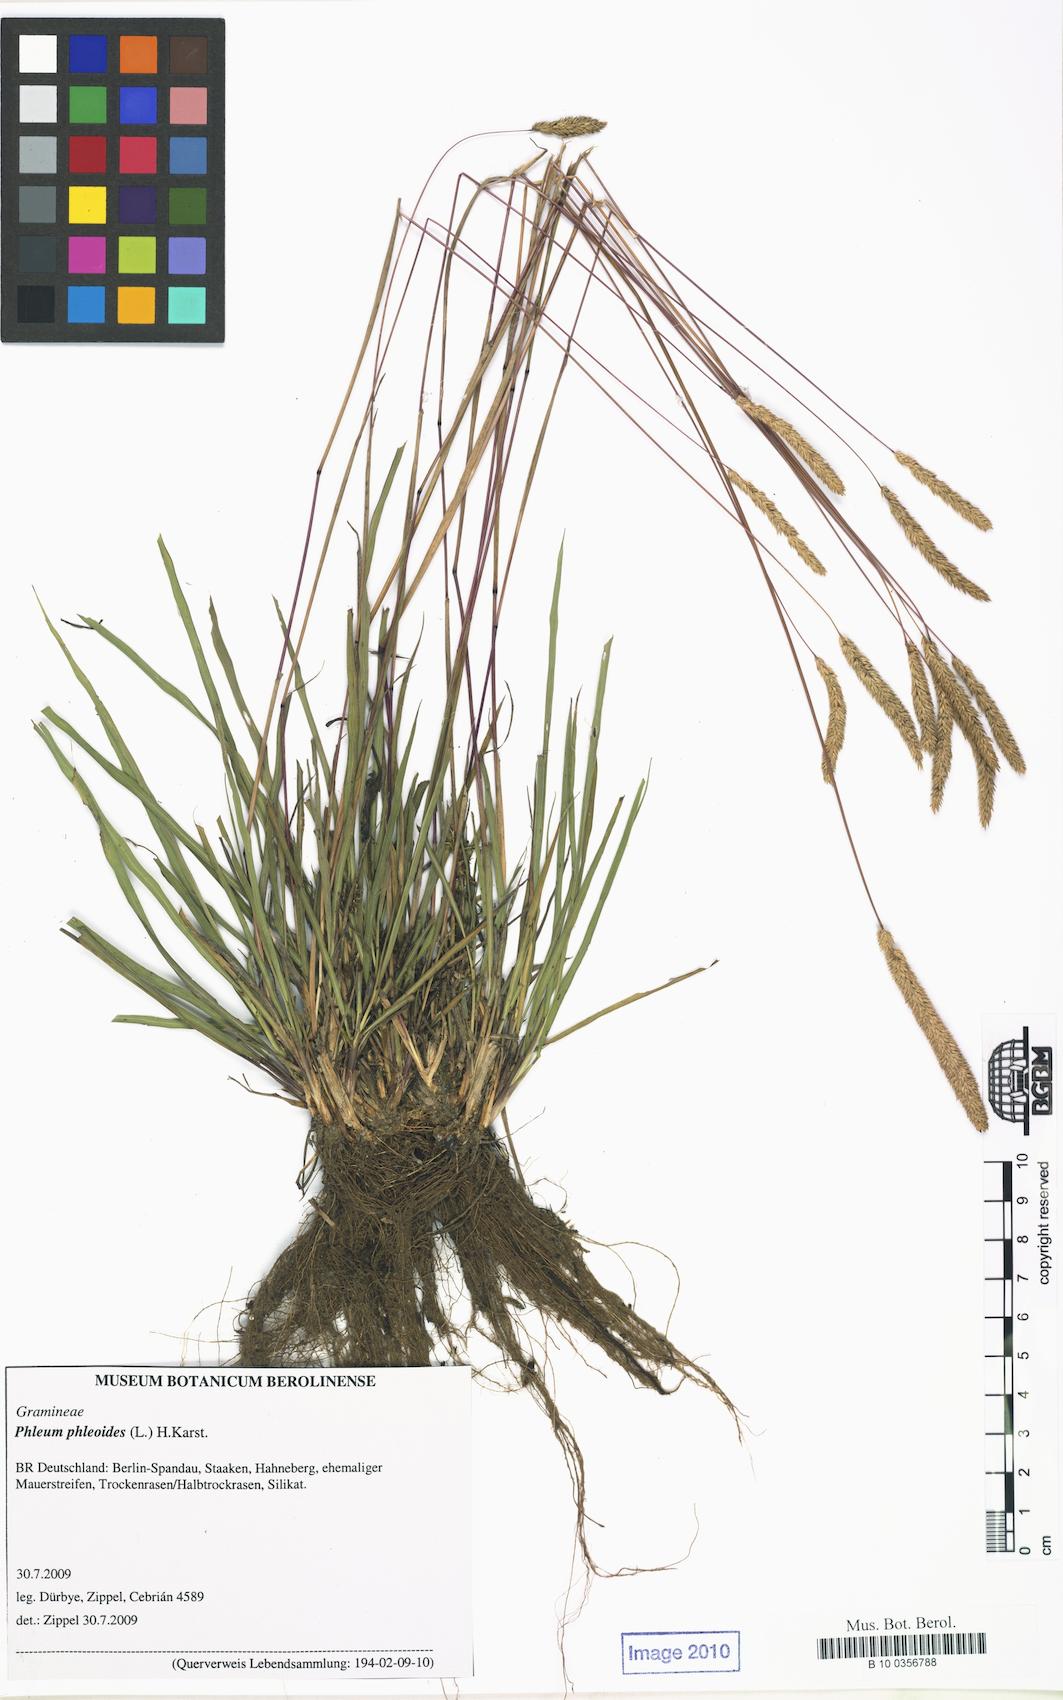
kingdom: Plantae
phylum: Tracheophyta
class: Liliopsida
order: Poales
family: Poaceae
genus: Phleum
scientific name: Phleum phleoides
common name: Purple-stem cat's-tail
